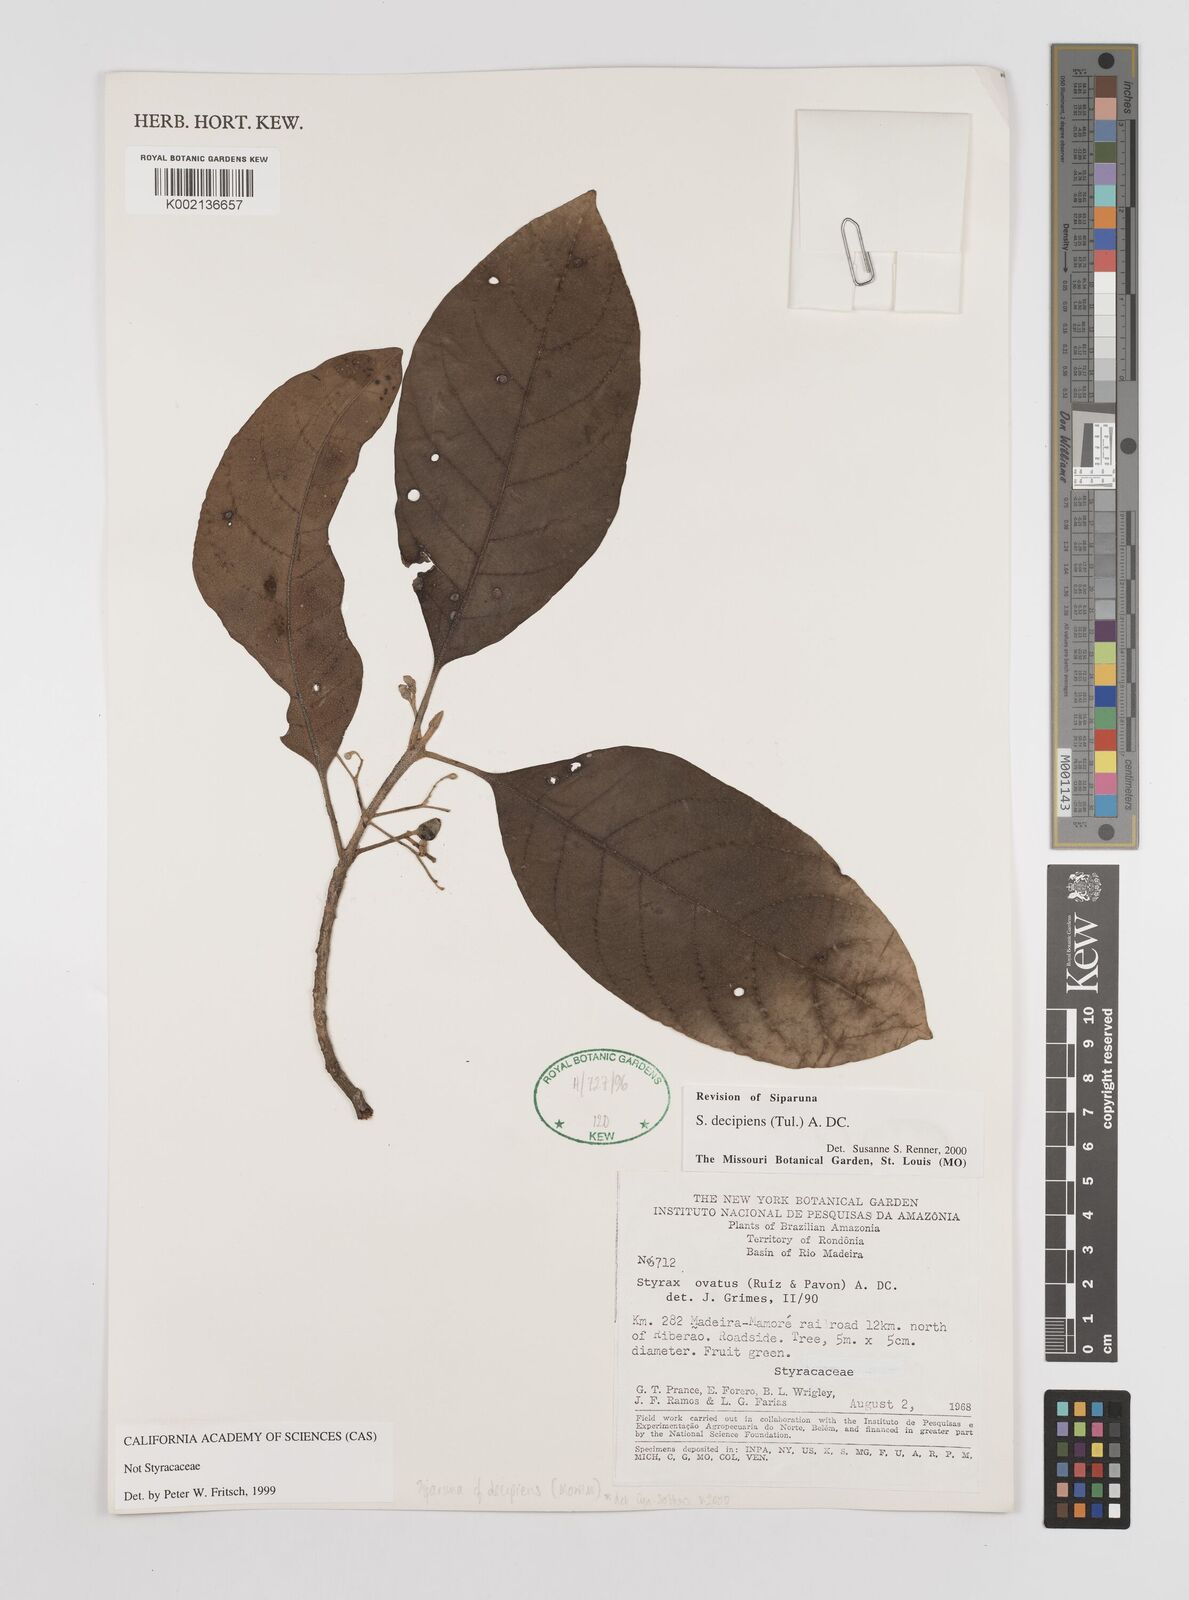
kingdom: Plantae
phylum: Tracheophyta
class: Magnoliopsida
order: Laurales
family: Siparunaceae
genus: Siparuna
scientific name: Siparuna decipiens
